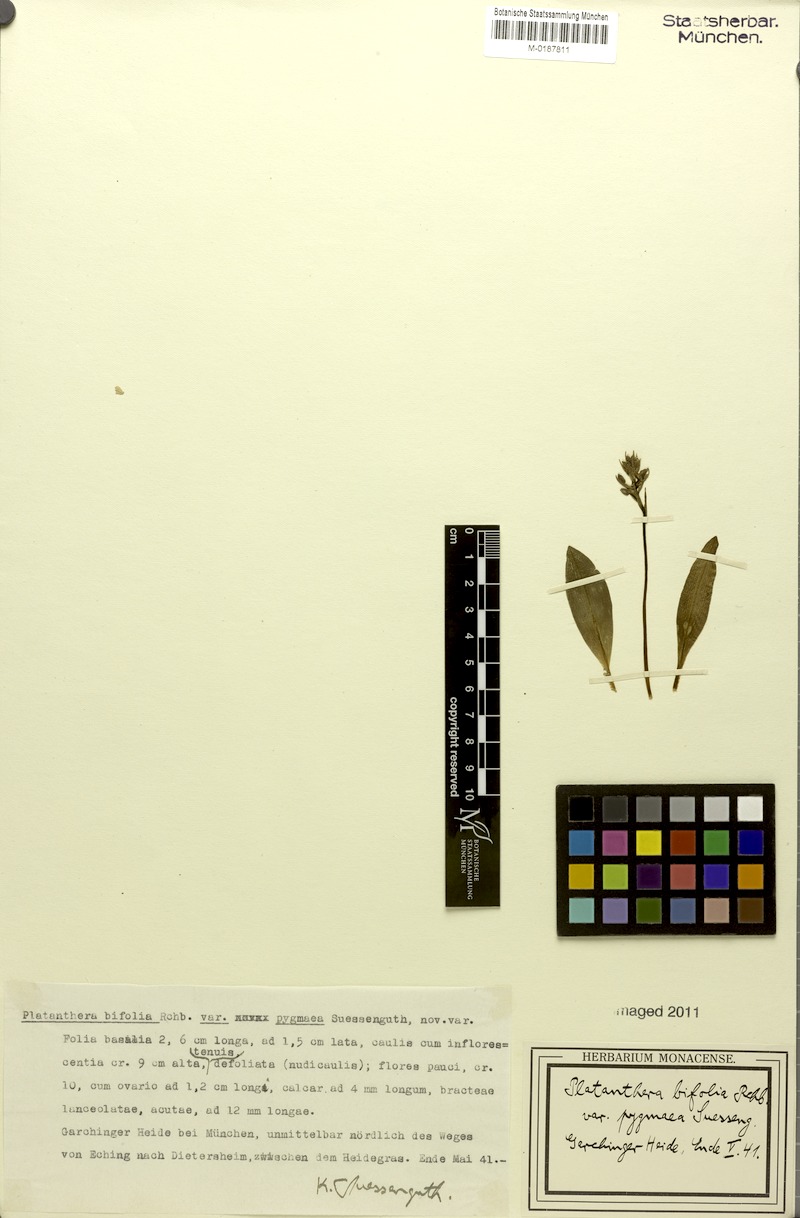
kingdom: Plantae
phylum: Tracheophyta
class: Liliopsida
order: Asparagales
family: Orchidaceae
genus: Platanthera
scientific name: Platanthera bifolia
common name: Lesser butterfly-orchid
